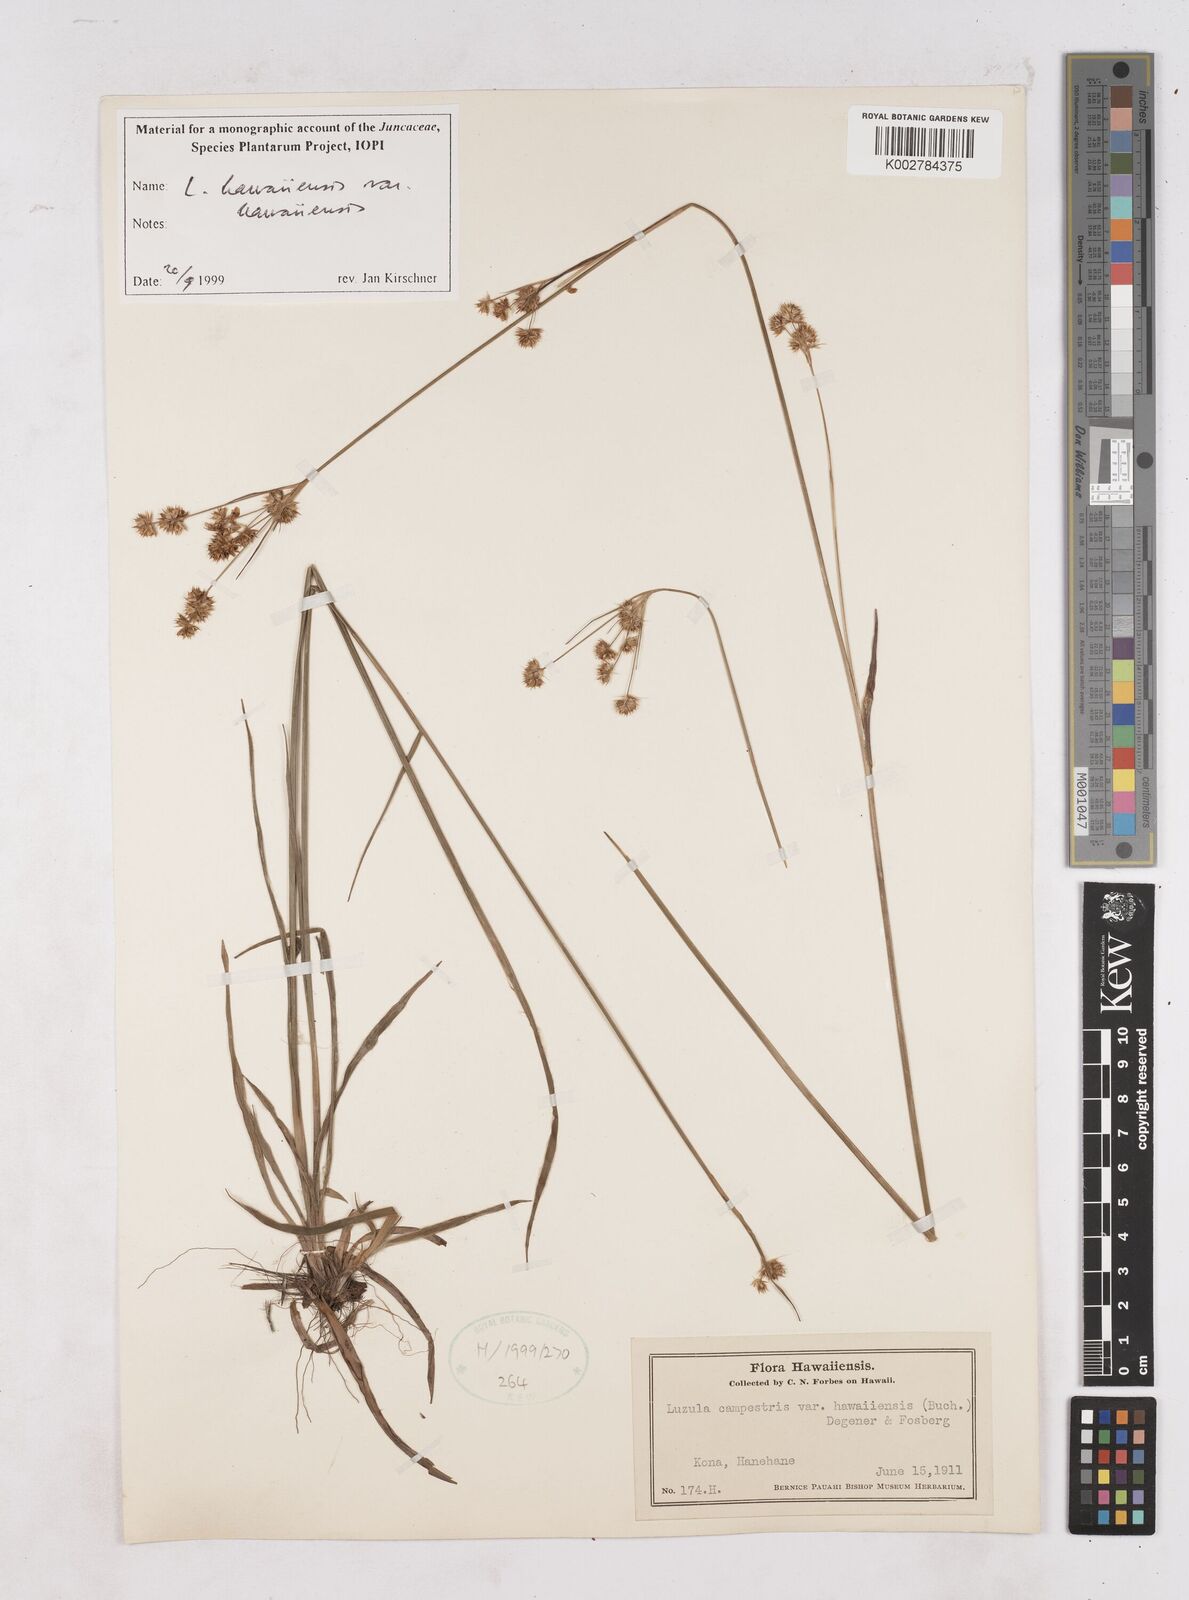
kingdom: Plantae
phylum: Tracheophyta
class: Liliopsida
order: Poales
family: Juncaceae
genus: Luzula
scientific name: Luzula campestris
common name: Field wood-rush
